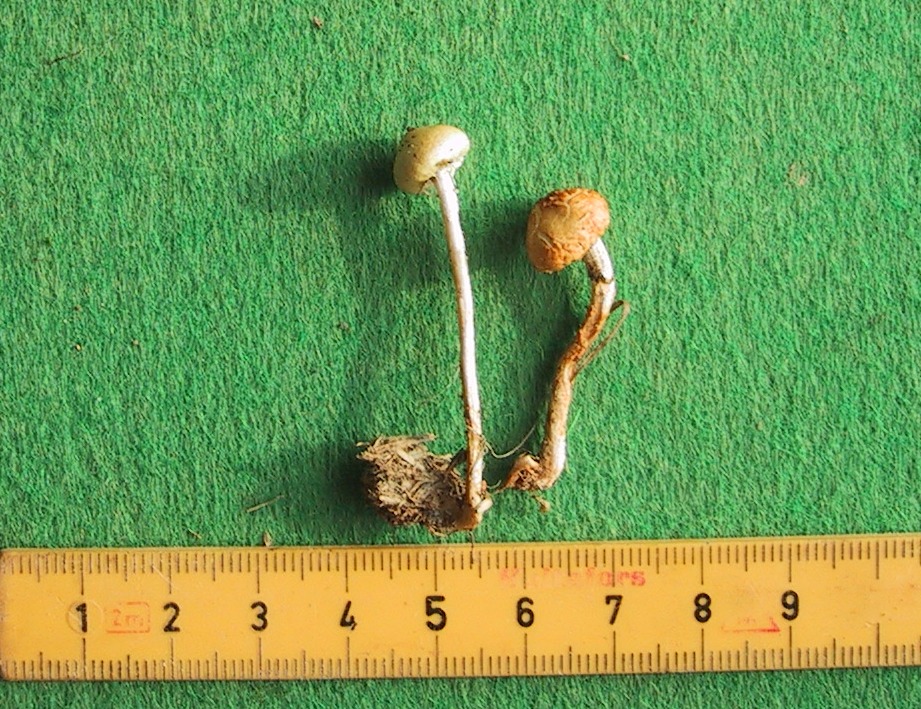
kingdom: Fungi
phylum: Basidiomycota
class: Agaricomycetes
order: Agaricales
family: Strophariaceae
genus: Protostropharia
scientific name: Protostropharia semiglobata
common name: halvkugleformet bredblad
